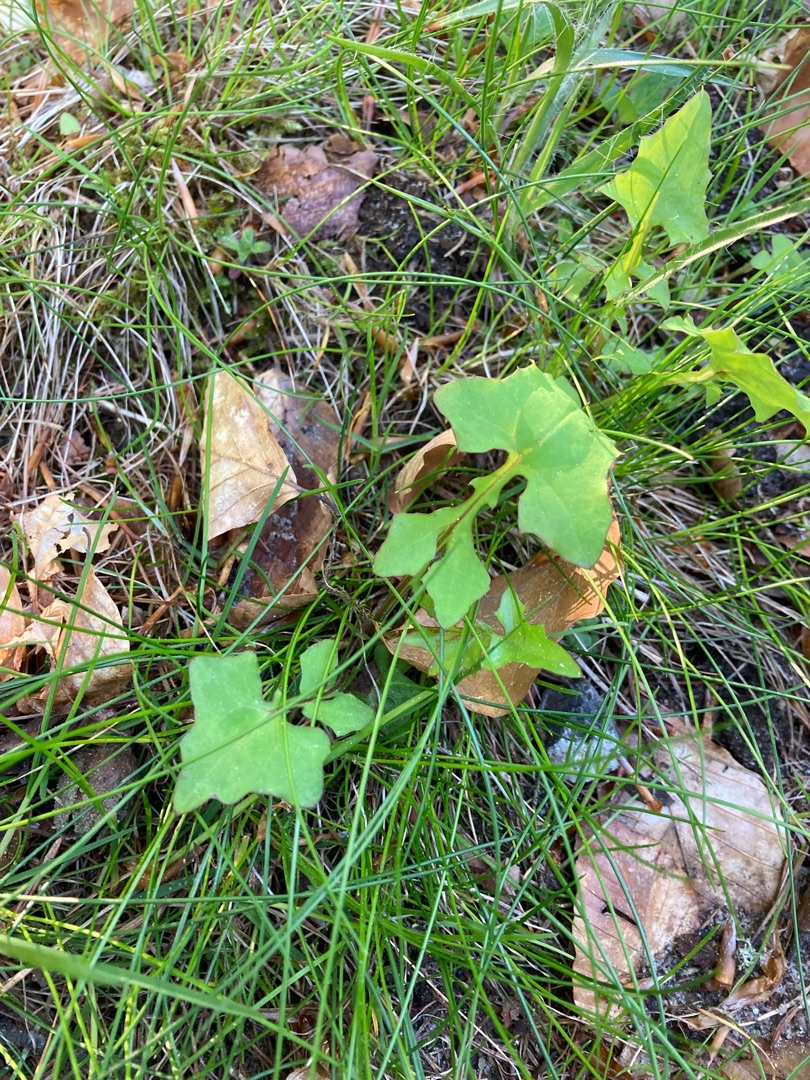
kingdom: Plantae
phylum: Tracheophyta
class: Magnoliopsida
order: Asterales
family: Asteraceae
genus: Mycelis
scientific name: Mycelis muralis
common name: Skov-salat
